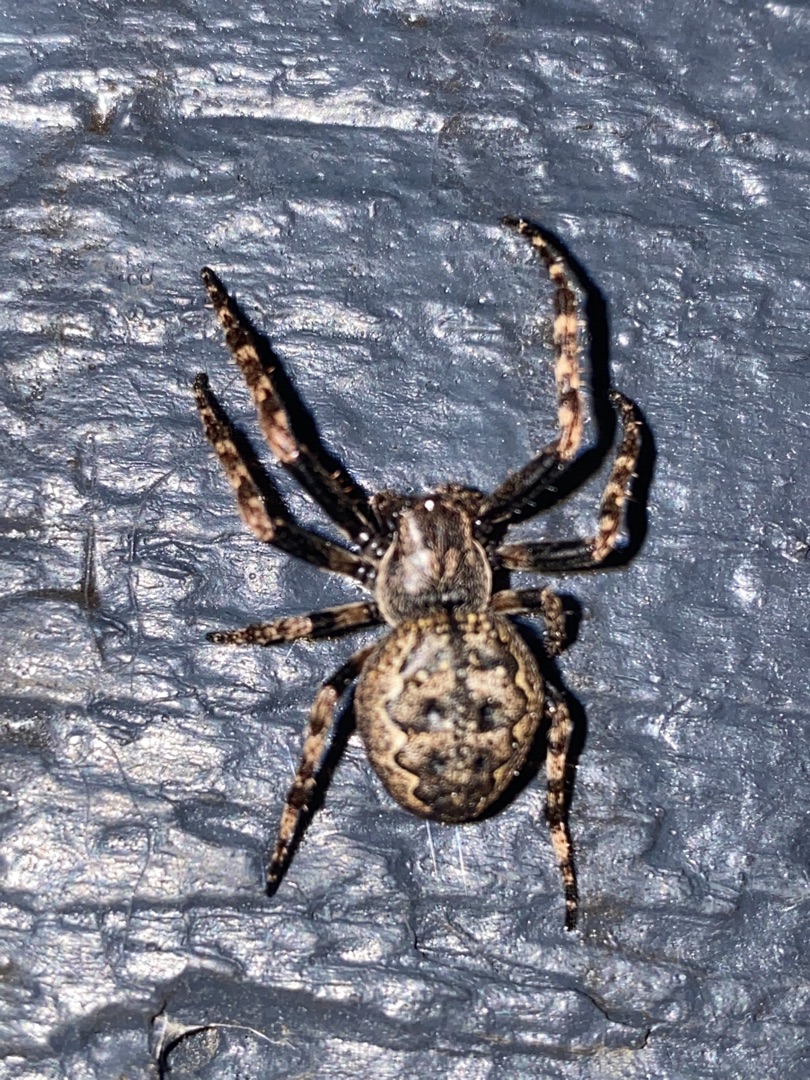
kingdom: Animalia
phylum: Arthropoda
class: Arachnida
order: Araneae
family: Araneidae
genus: Nuctenea
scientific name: Nuctenea umbratica
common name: Flad hjulspinder
